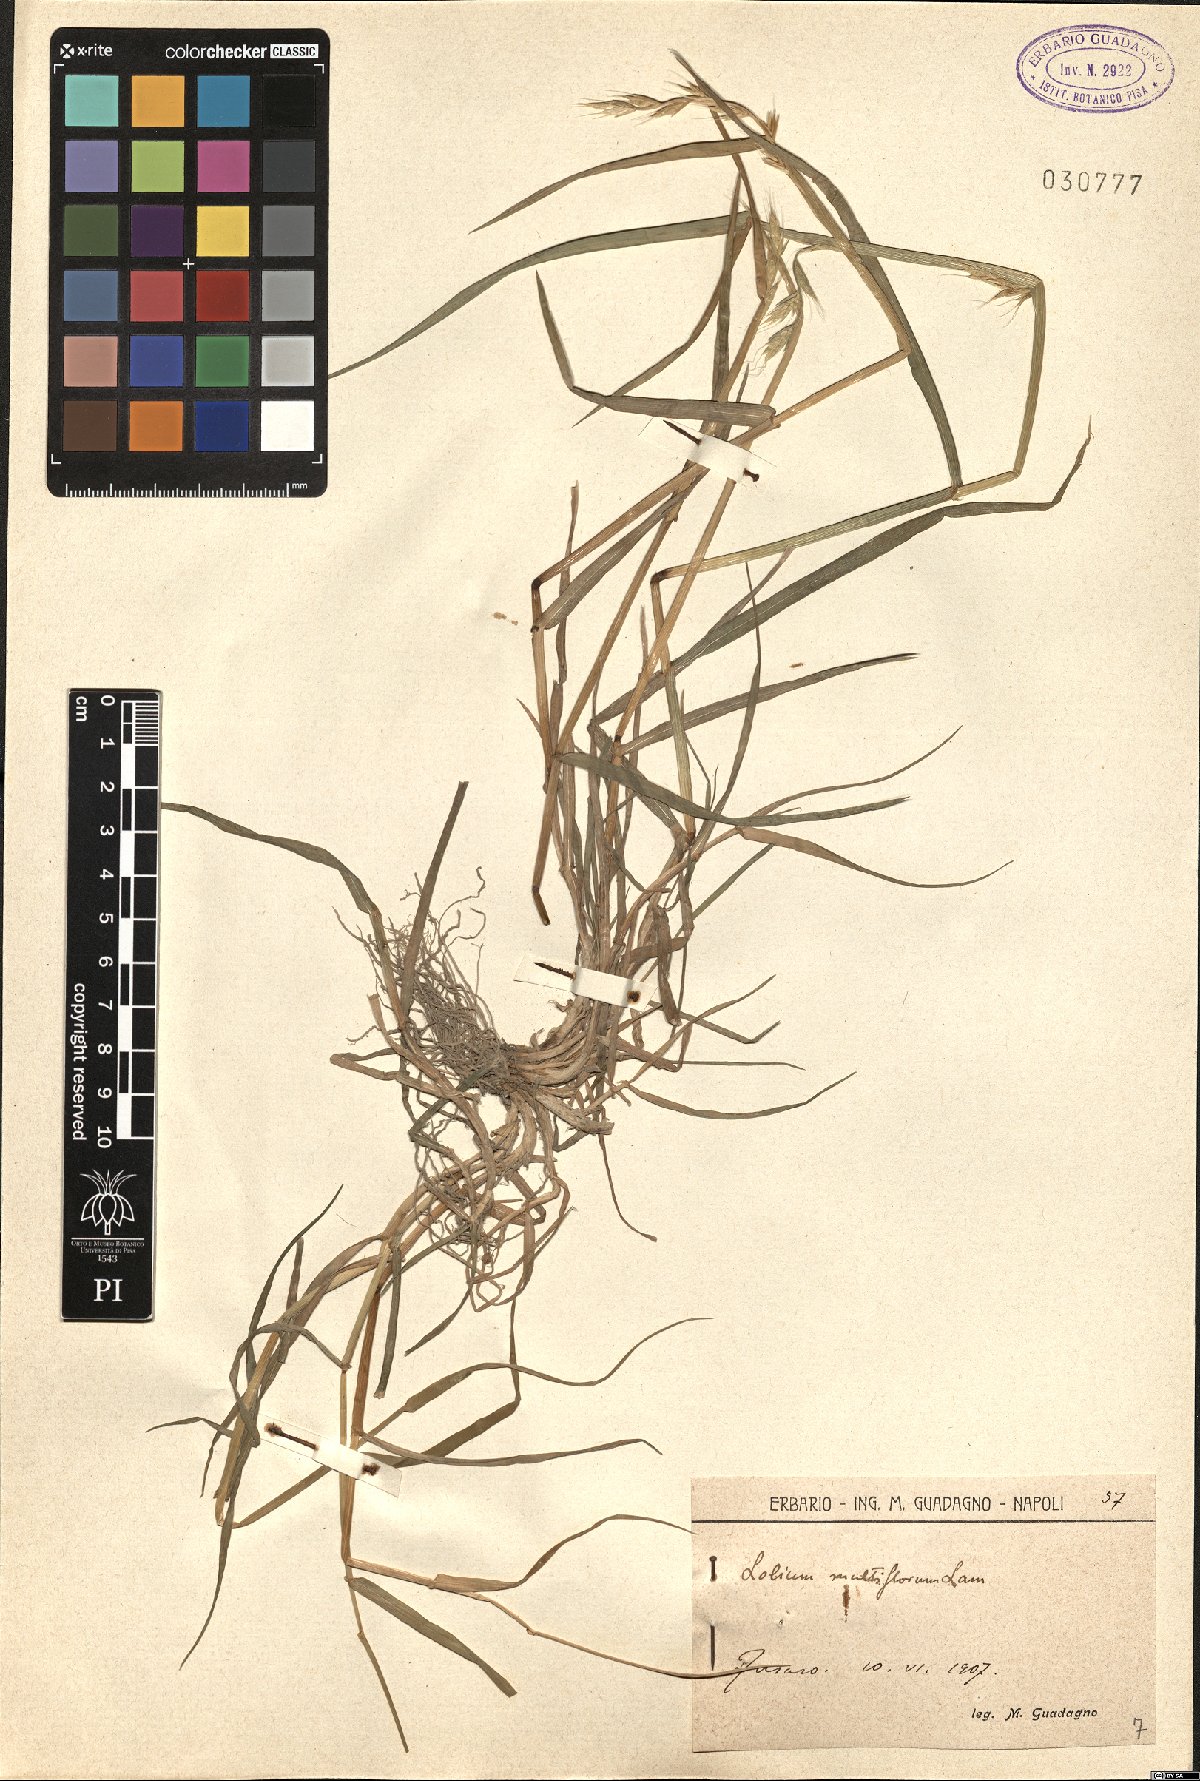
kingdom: Plantae
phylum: Tracheophyta
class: Liliopsida
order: Poales
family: Poaceae
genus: Lolium
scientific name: Lolium multiflorum
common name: Annual ryegrass
